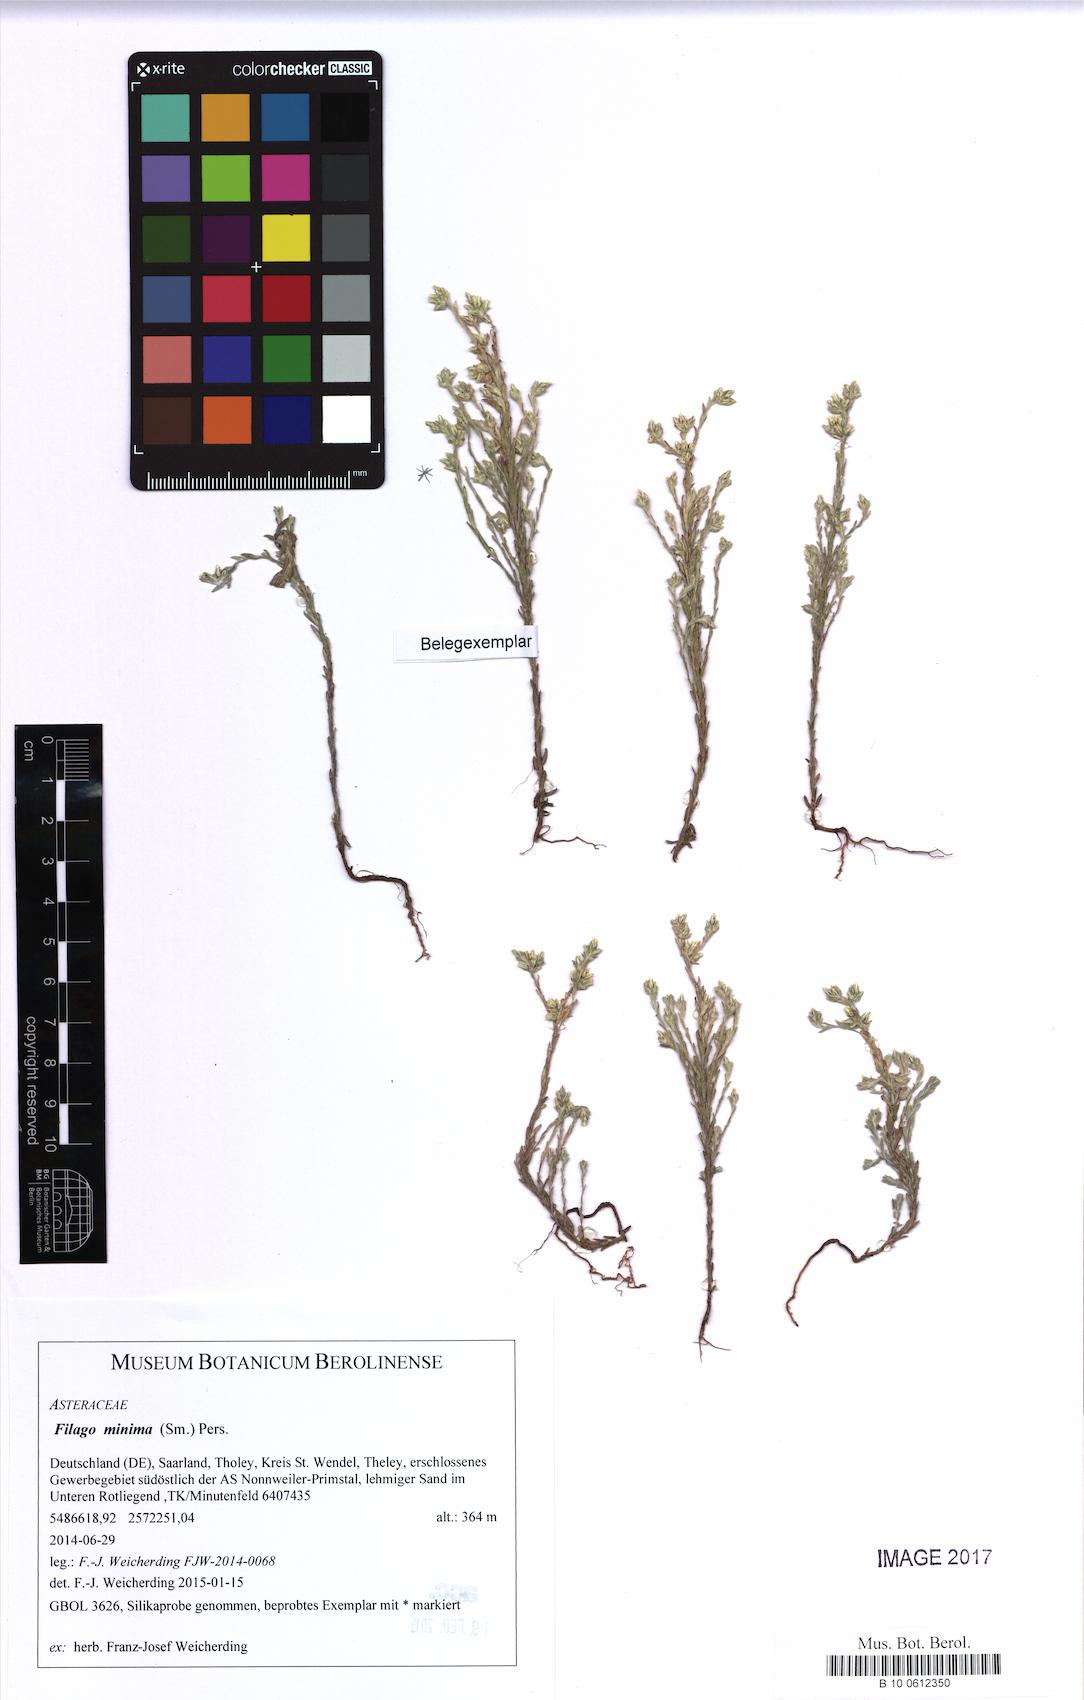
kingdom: Plantae
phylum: Tracheophyta
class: Magnoliopsida
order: Asterales
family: Asteraceae
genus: Logfia
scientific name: Logfia minima
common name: Little cottonrose
